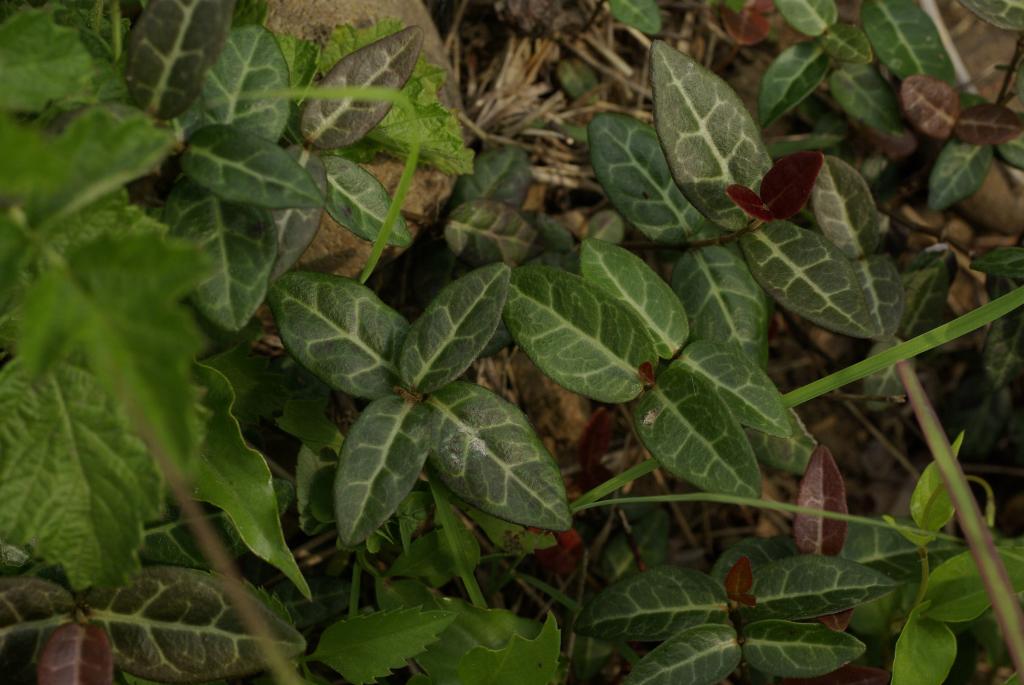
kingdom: Plantae
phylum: Tracheophyta
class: Magnoliopsida
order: Gentianales
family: Apocynaceae
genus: Trachelospermum
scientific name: Trachelospermum jasminoides
